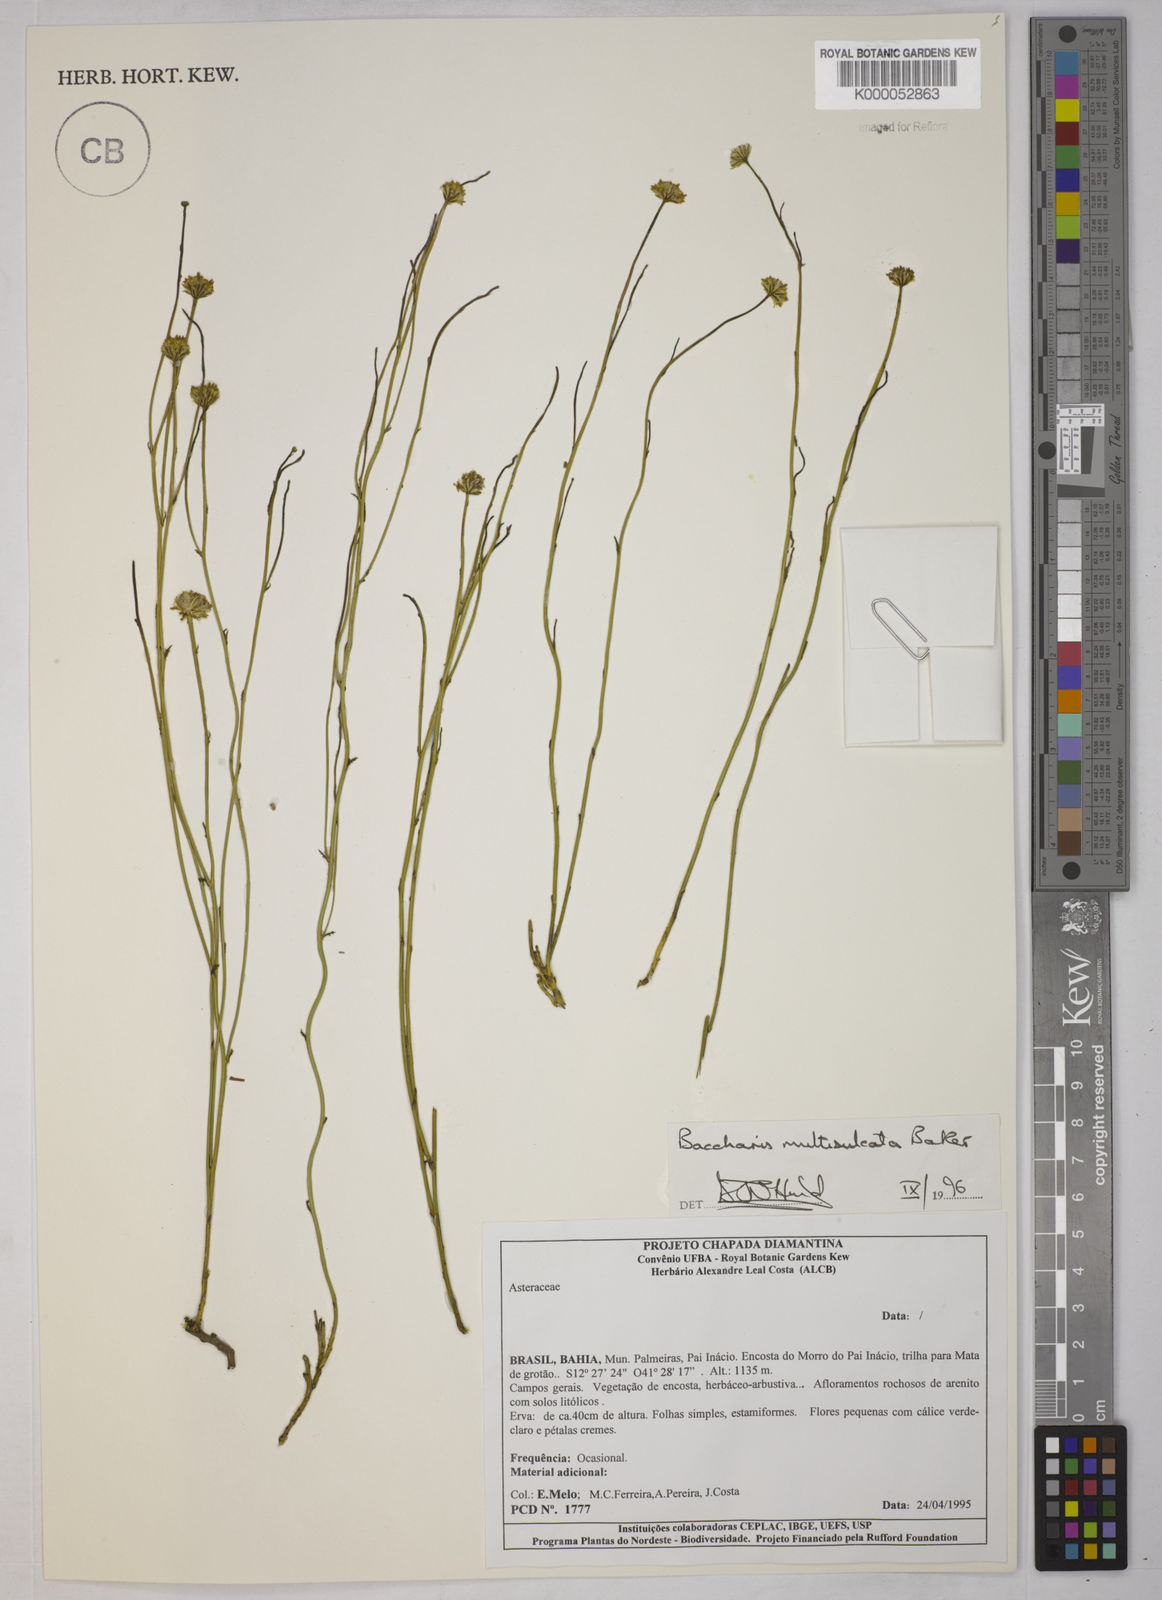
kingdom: Plantae
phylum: Tracheophyta
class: Magnoliopsida
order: Asterales
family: Asteraceae
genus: Baccharis
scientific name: Baccharis orbignyana
